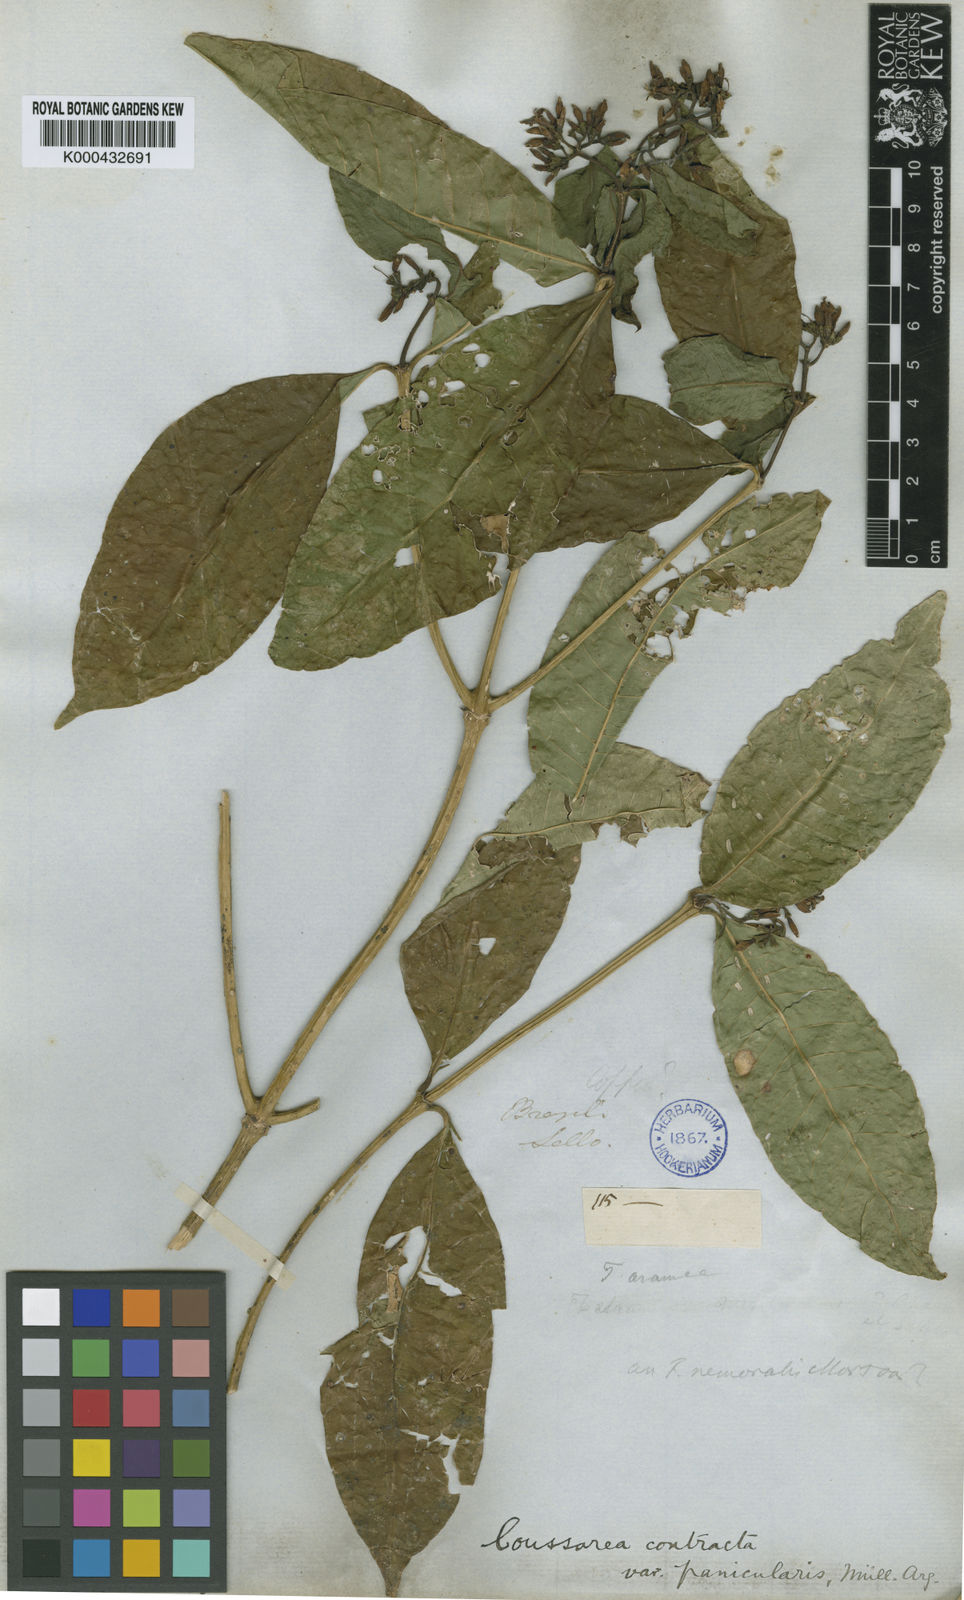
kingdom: Plantae
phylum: Tracheophyta
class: Magnoliopsida
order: Gentianales
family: Rubiaceae
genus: Coussarea
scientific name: Coussarea
